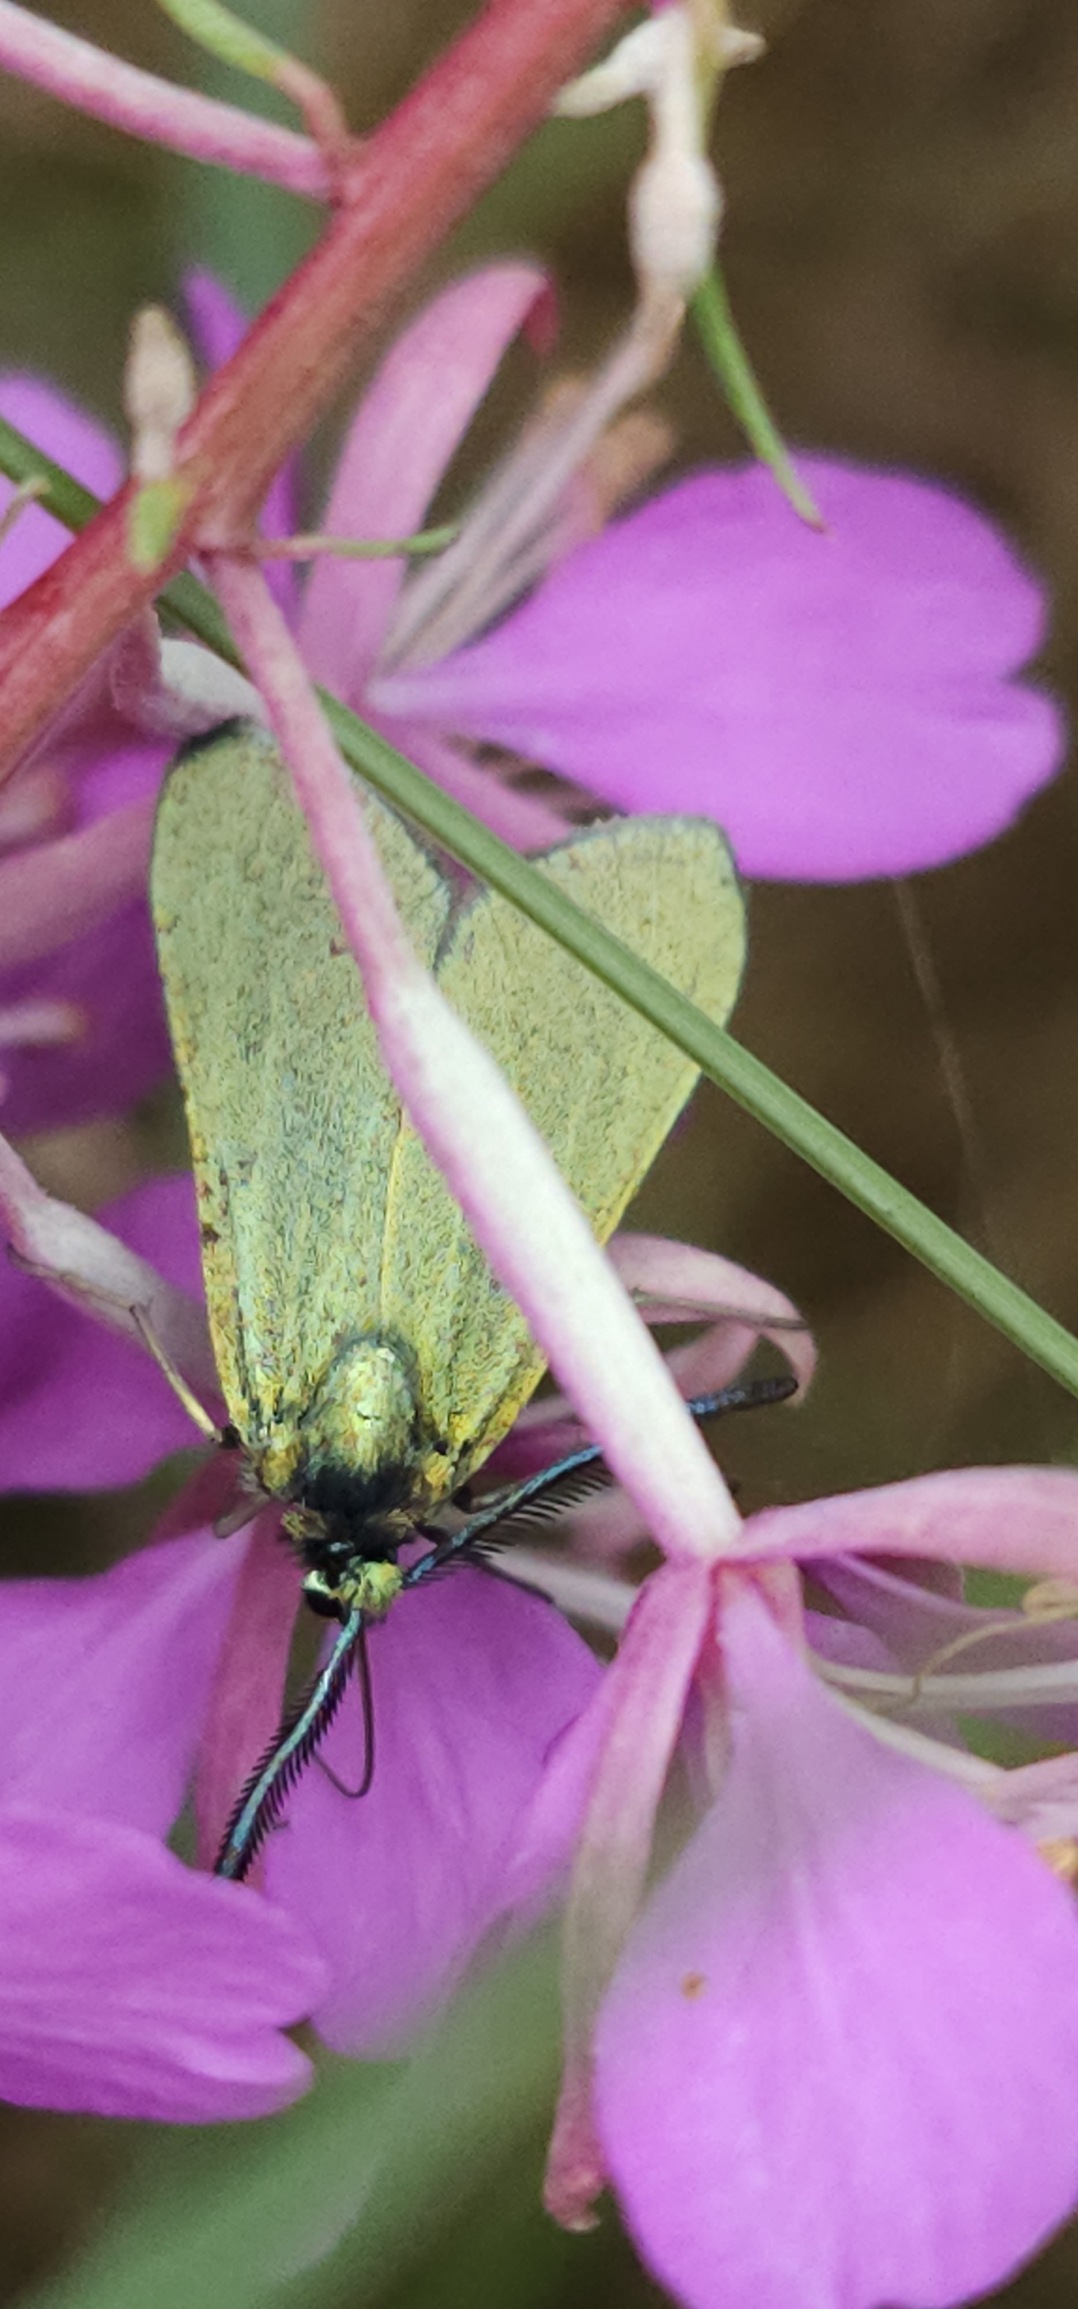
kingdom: Animalia
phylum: Arthropoda
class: Insecta
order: Lepidoptera
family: Zygaenidae
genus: Adscita
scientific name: Adscita statices
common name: Metalvinge
